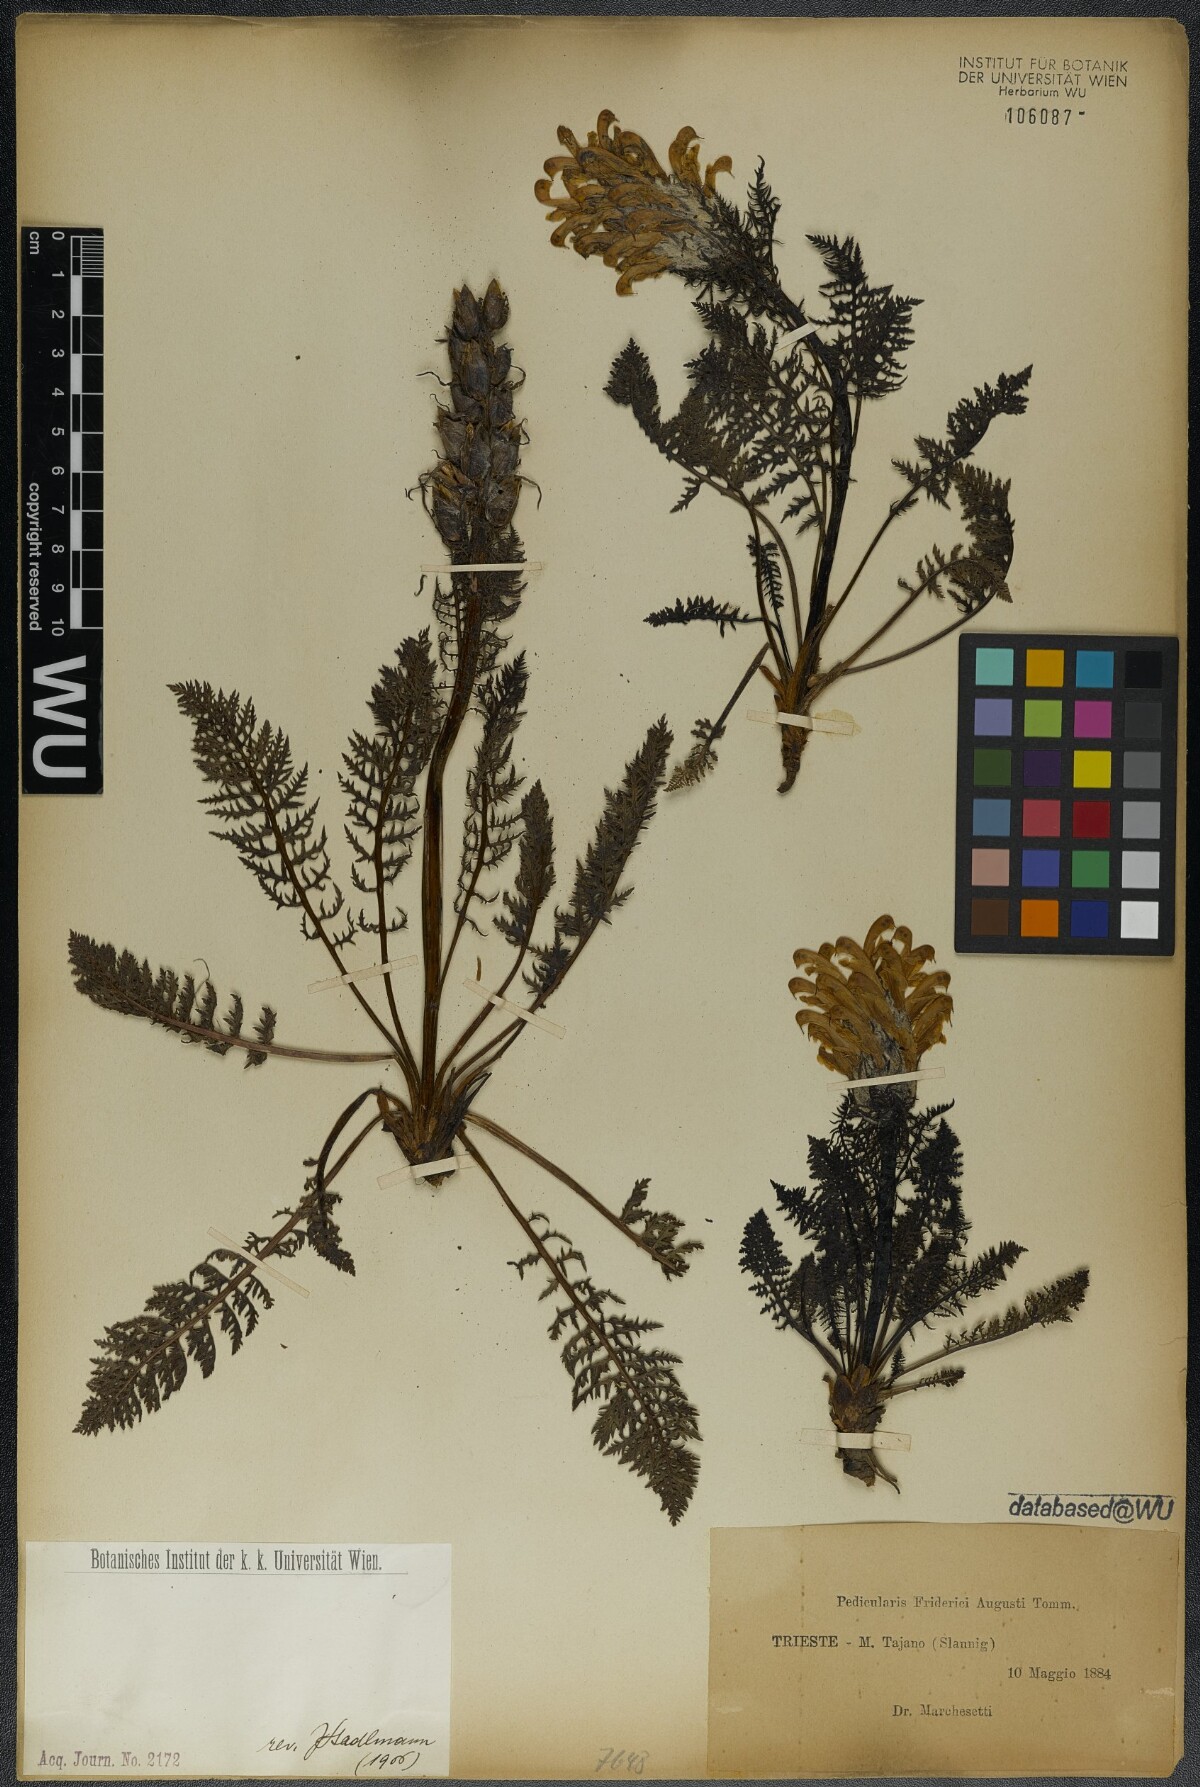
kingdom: Plantae
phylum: Tracheophyta
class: Magnoliopsida
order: Lamiales
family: Orobanchaceae
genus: Pedicularis
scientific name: Pedicularis friderici-augusti
